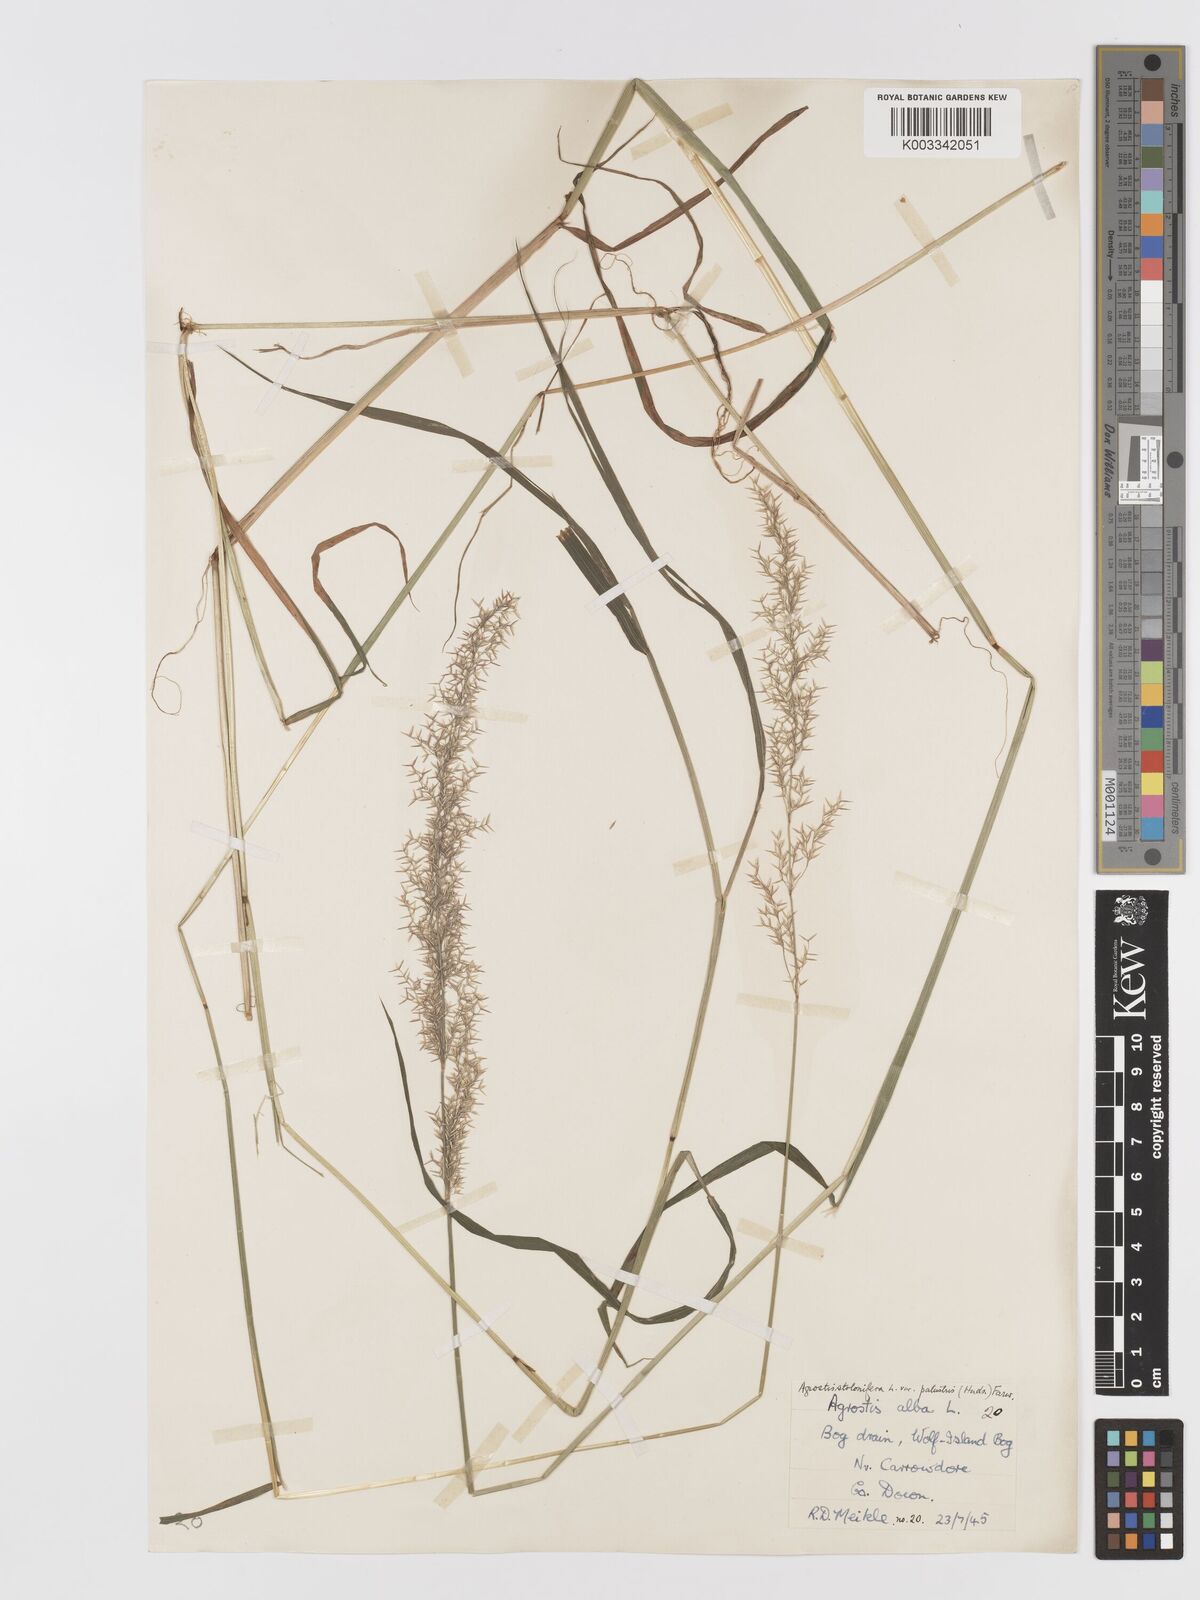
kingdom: Plantae
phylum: Tracheophyta
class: Liliopsida
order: Poales
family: Poaceae
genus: Agrostis
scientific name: Agrostis stolonifera
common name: Creeping bentgrass
